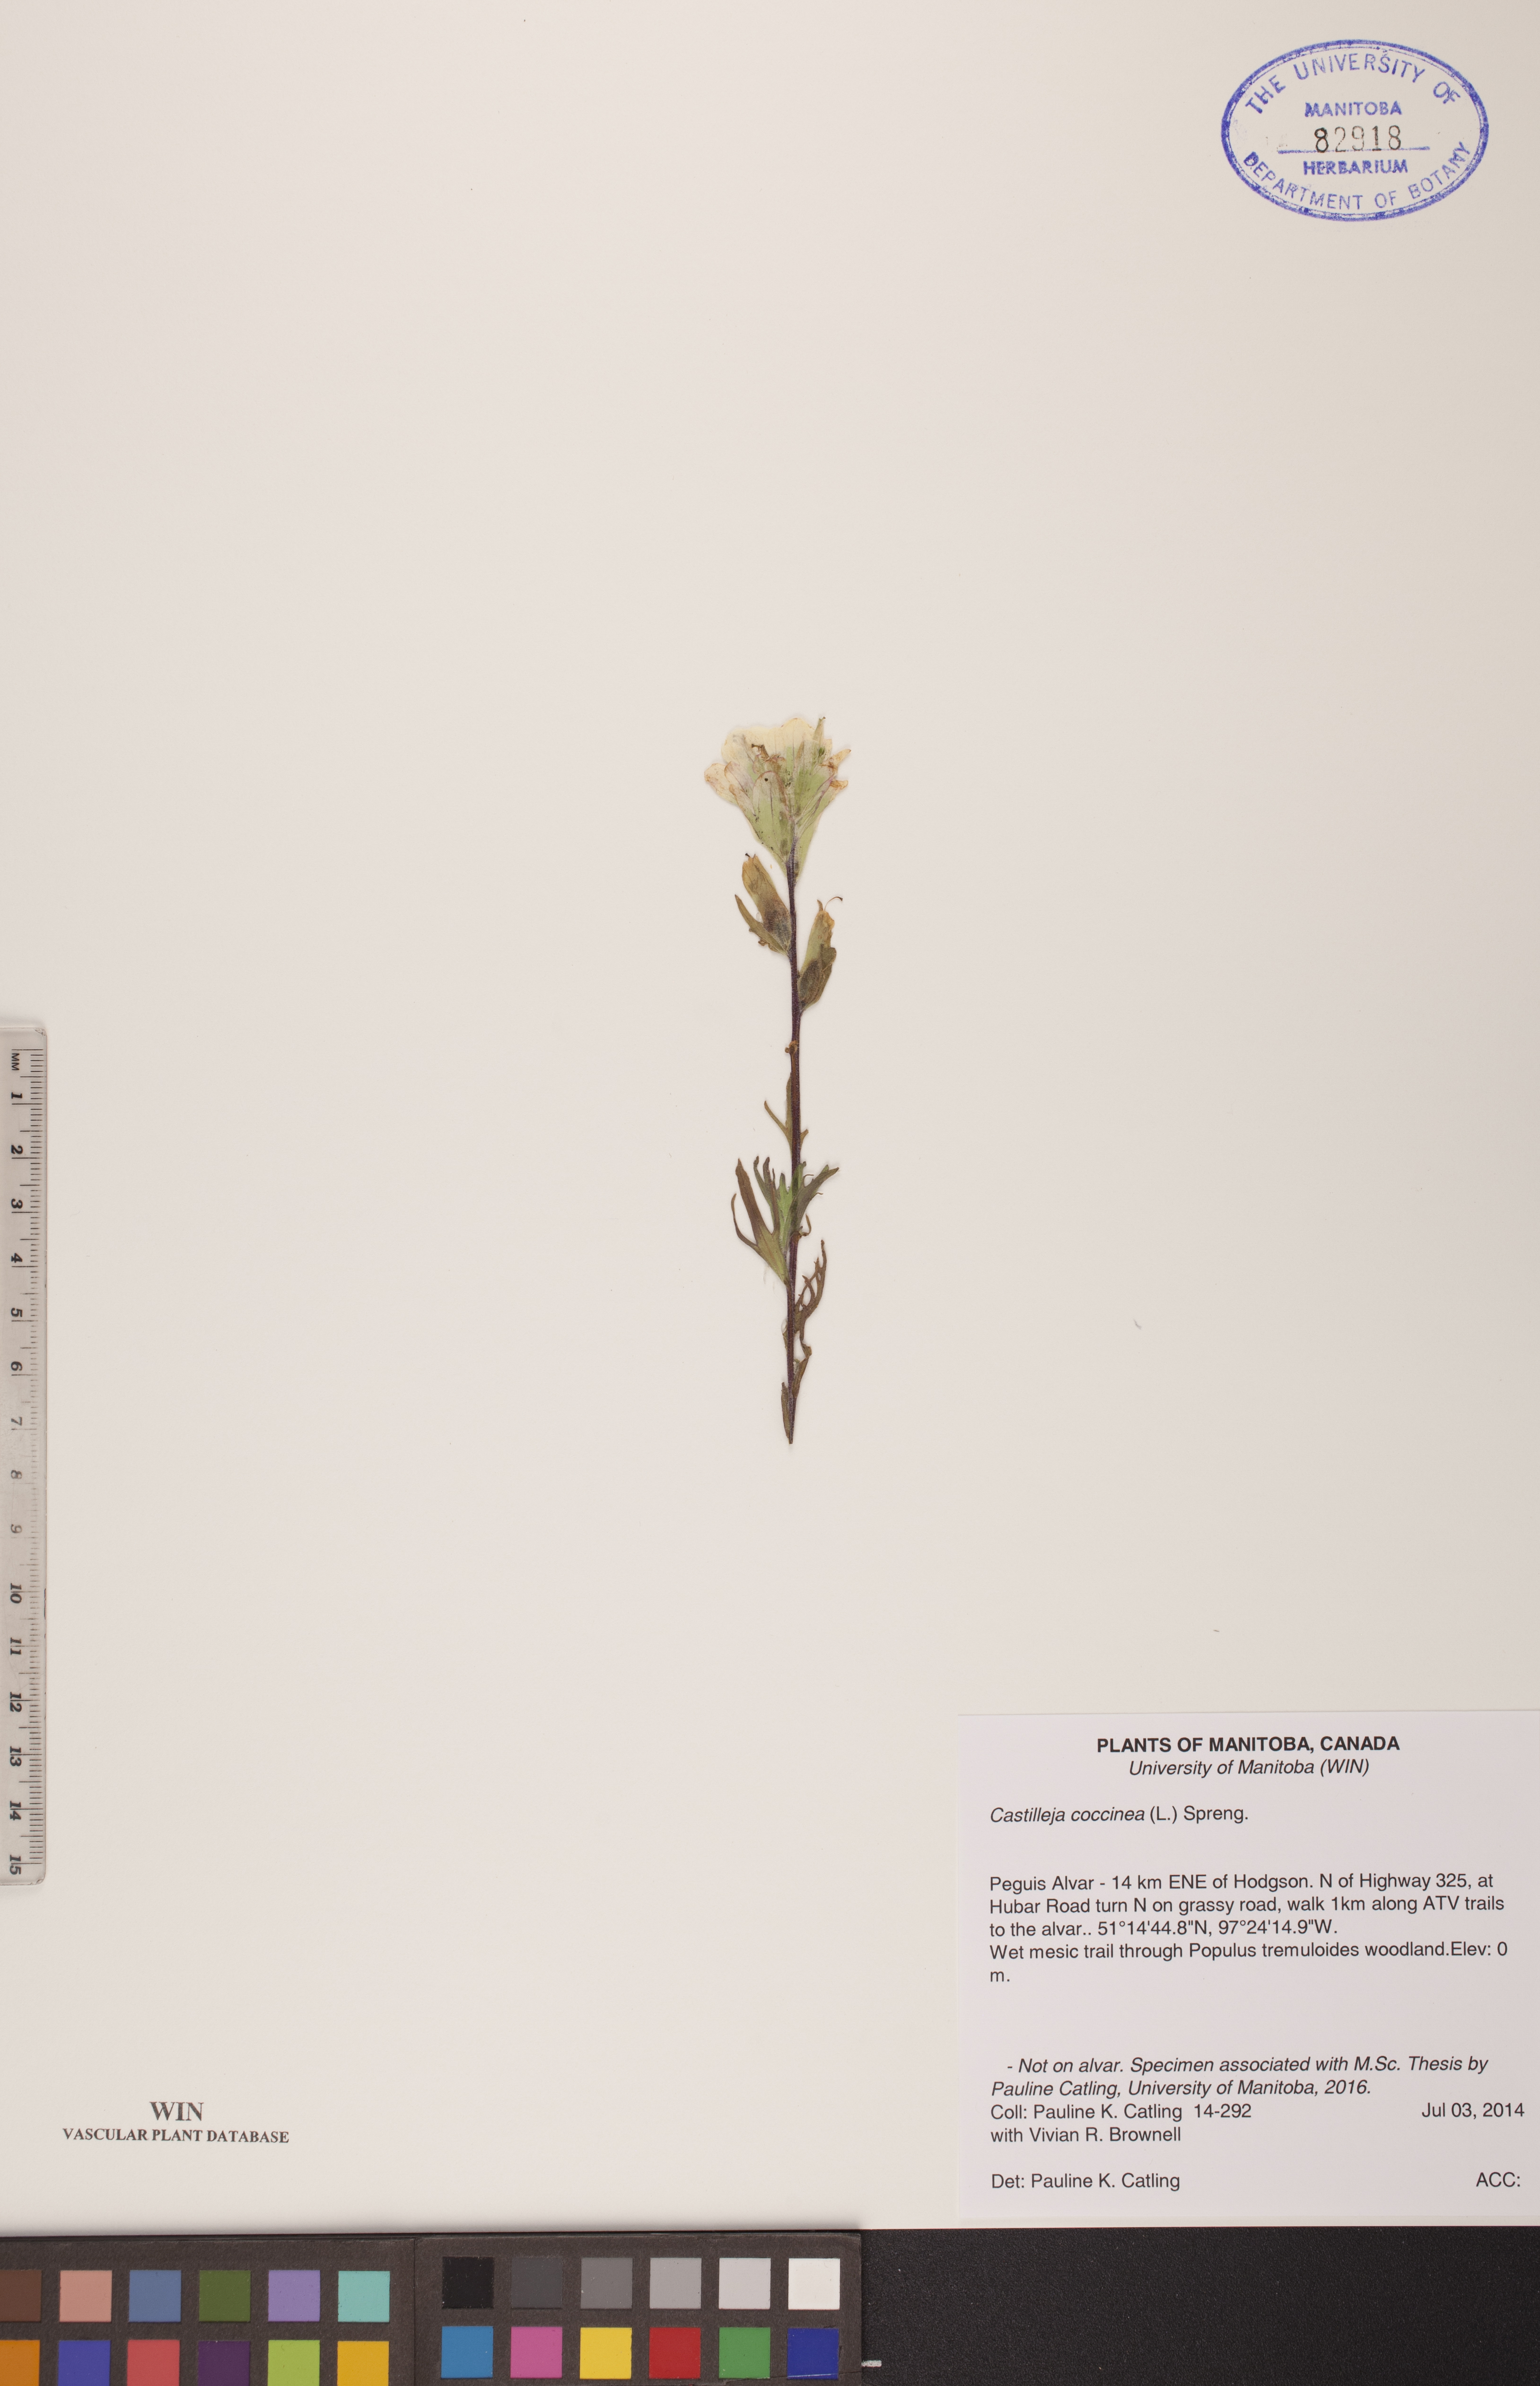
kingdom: Plantae
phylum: Tracheophyta
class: Magnoliopsida
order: Lamiales
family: Orobanchaceae
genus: Castilleja
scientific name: Castilleja coccinea
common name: Scarlet paintbrush
